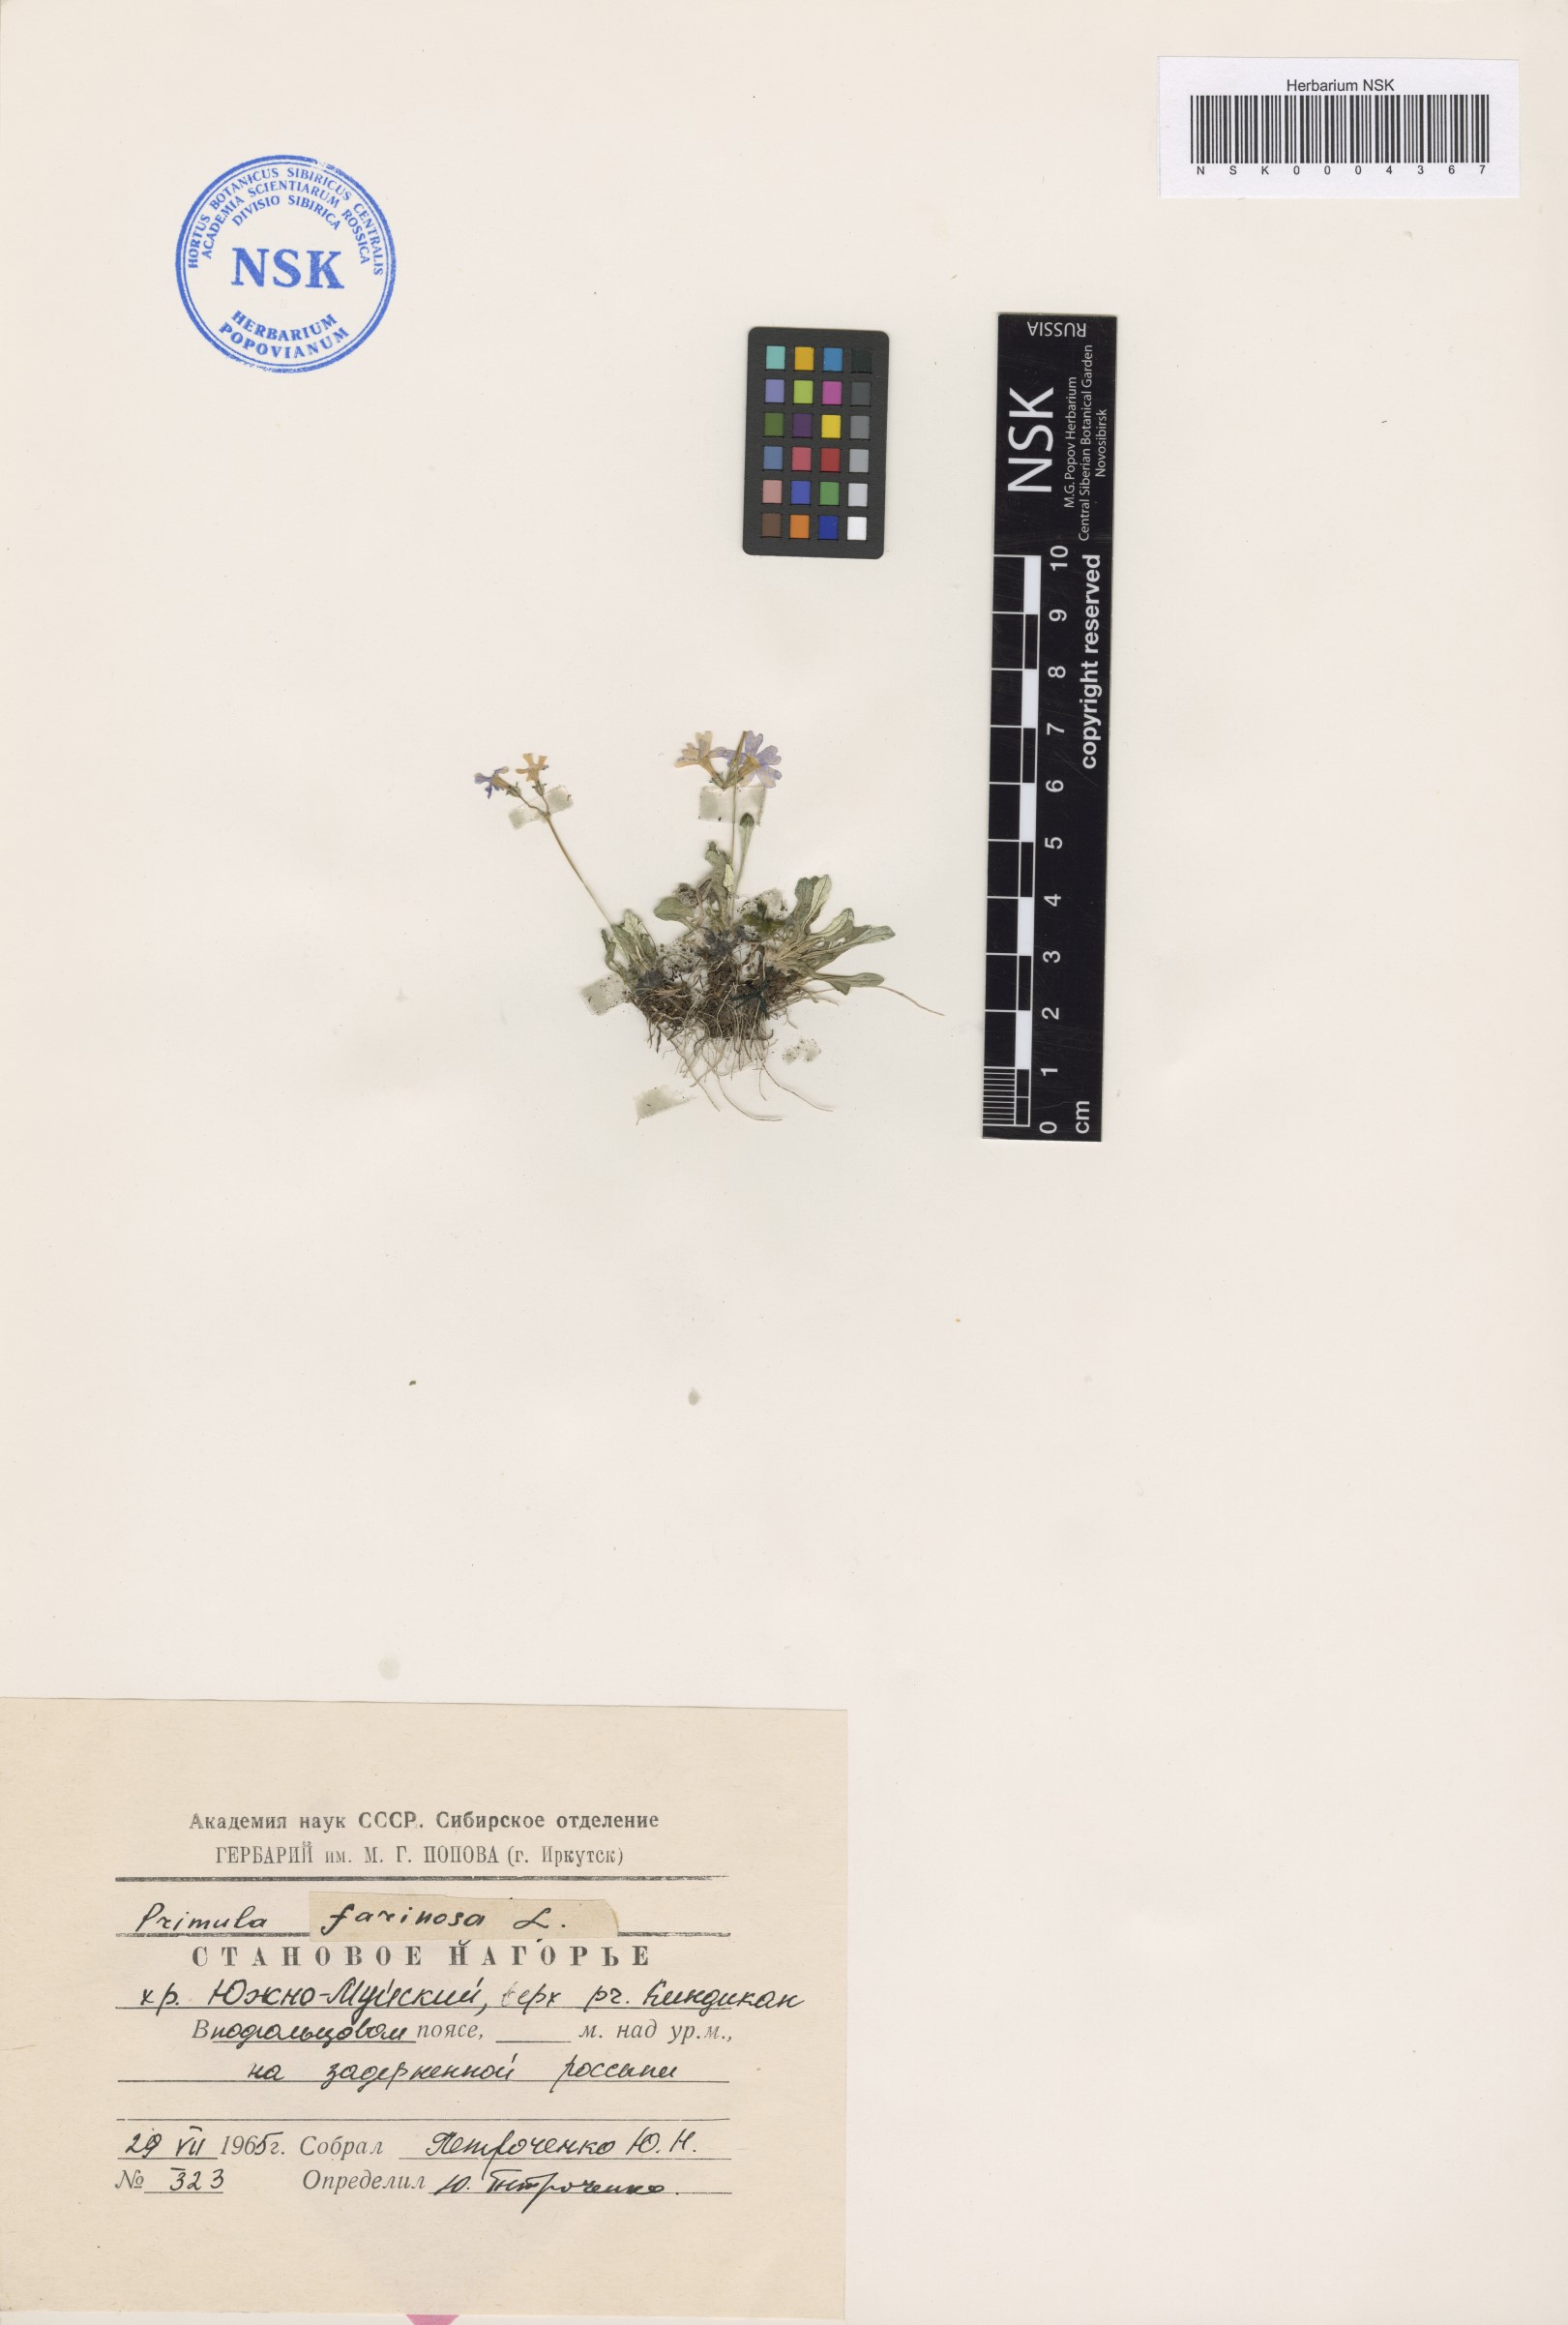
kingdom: Plantae
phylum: Tracheophyta
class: Magnoliopsida
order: Asterales
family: Asteraceae
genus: Taraxacum
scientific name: Taraxacum pseudonivale
